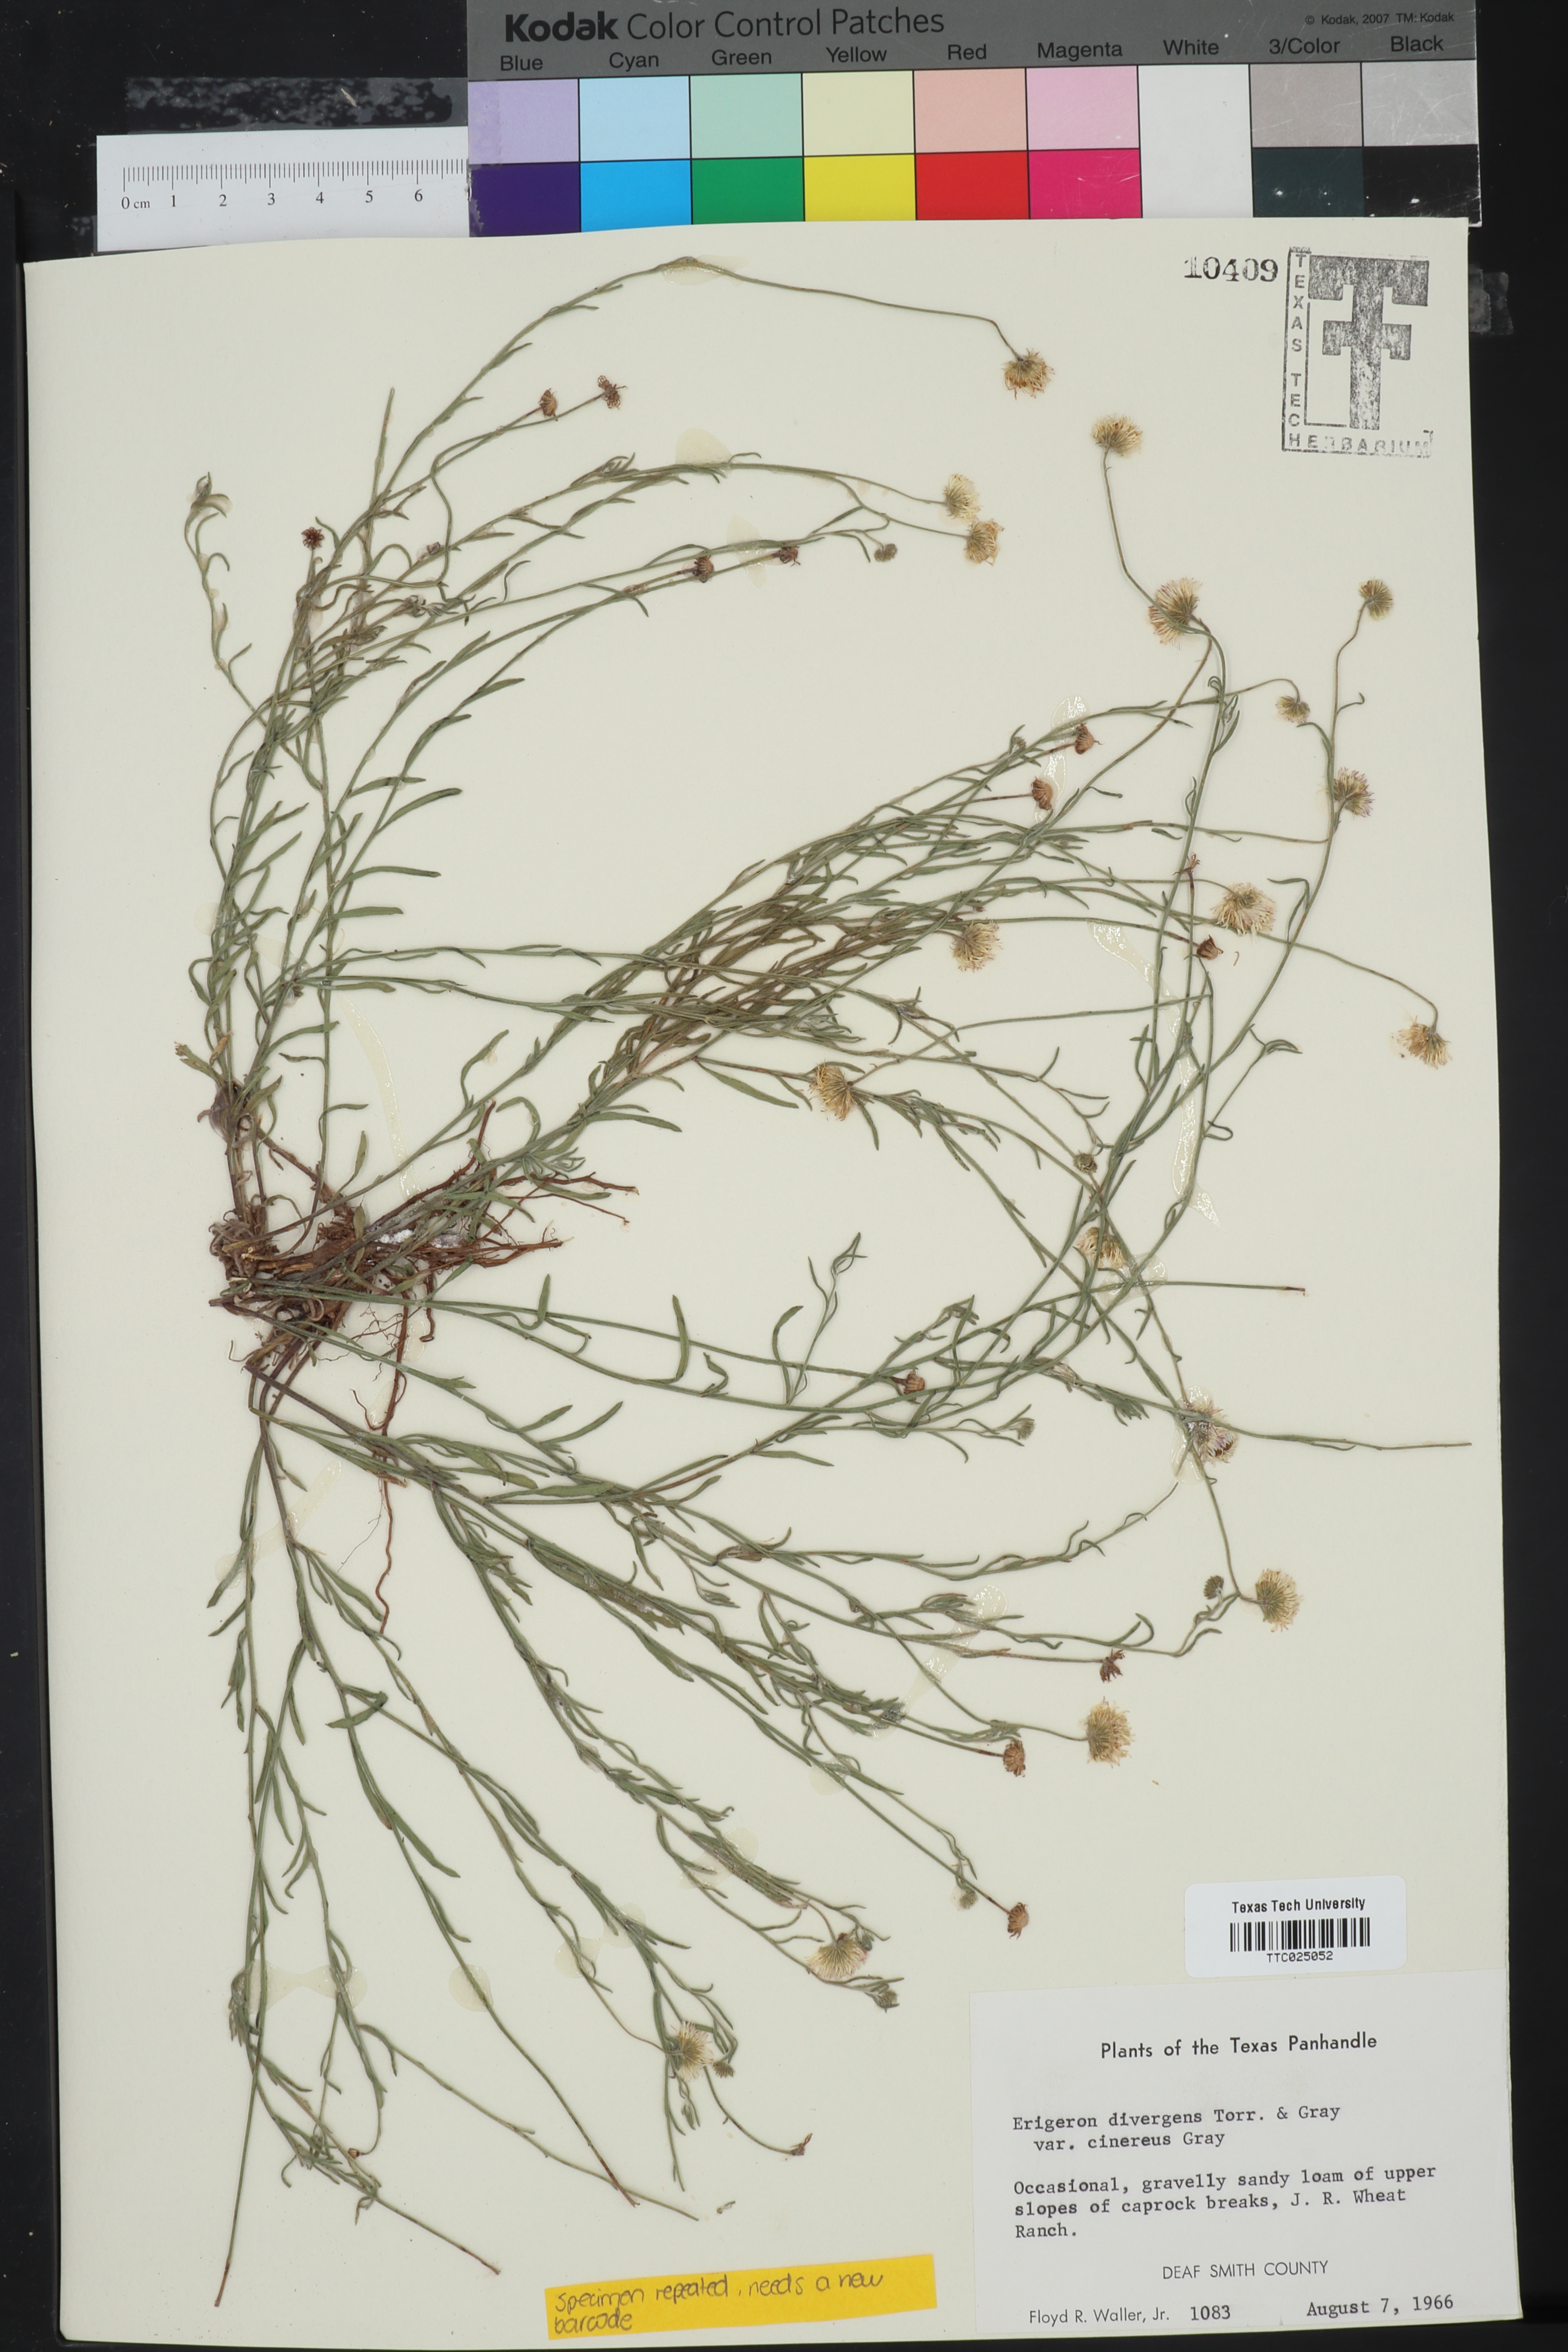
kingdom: Plantae
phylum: Tracheophyta
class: Magnoliopsida
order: Asterales
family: Asteraceae
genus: Erigeron
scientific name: Erigeron tracyi
